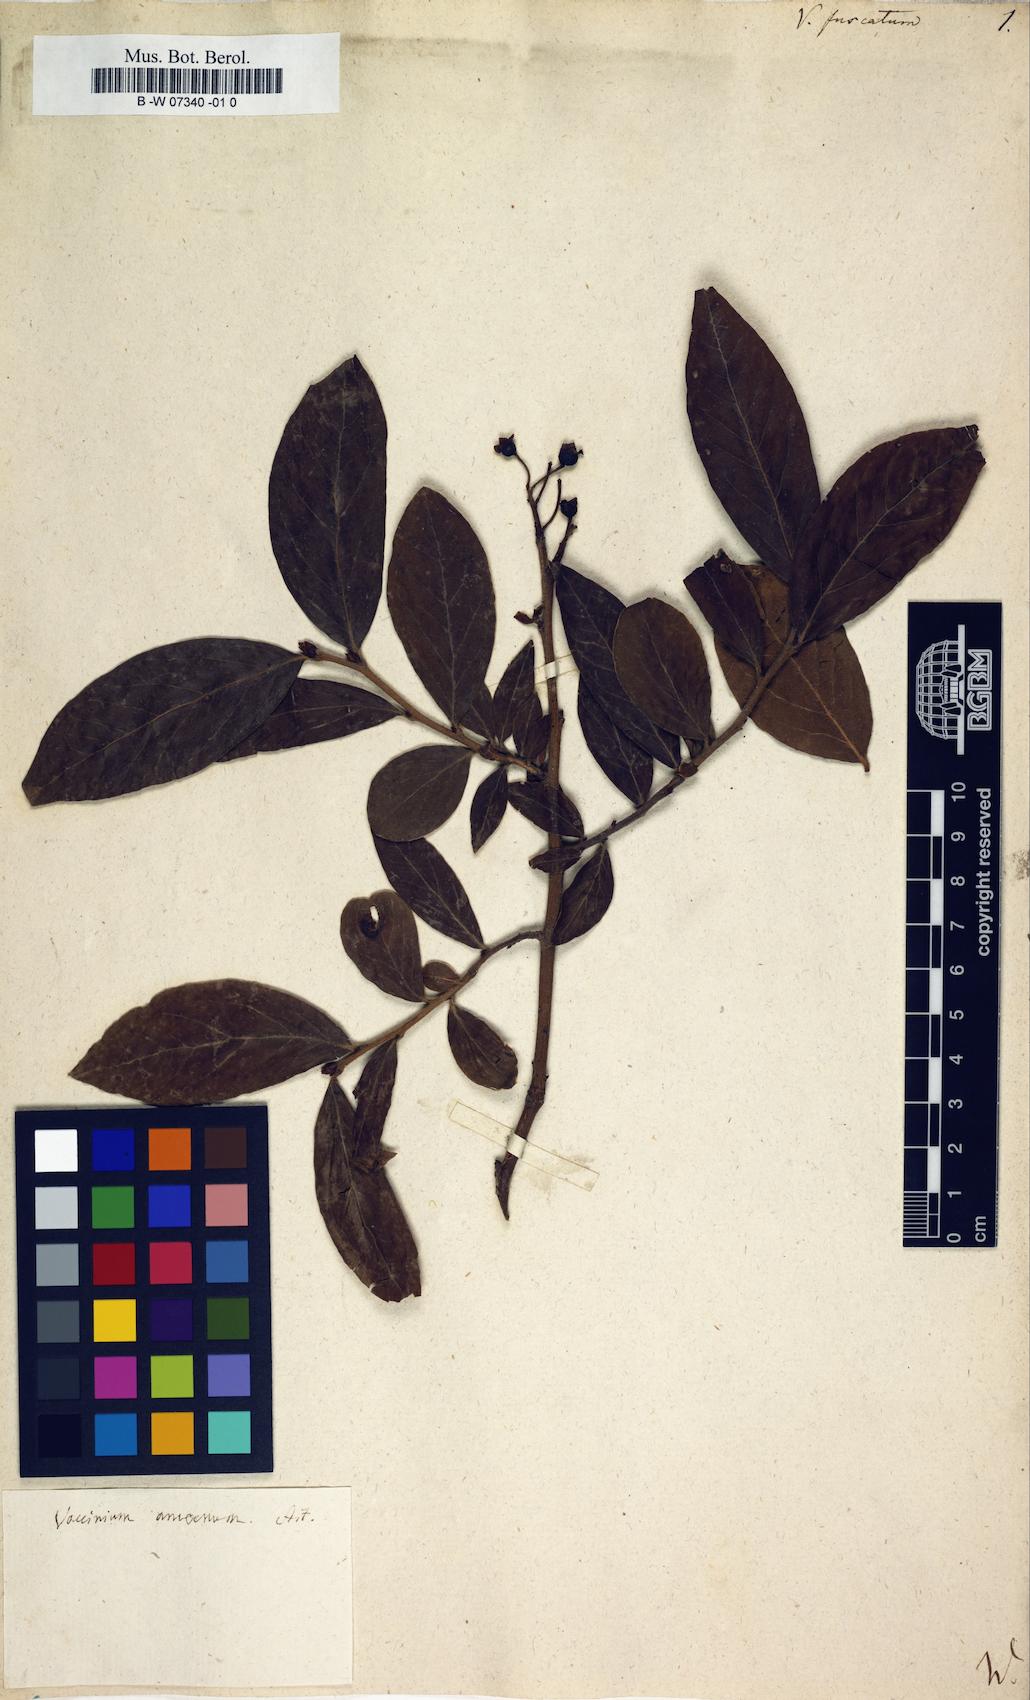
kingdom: Plantae
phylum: Tracheophyta
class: Magnoliopsida
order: Ericales
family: Ericaceae
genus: Vaccinium
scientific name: Vaccinium corymbosum
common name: Blueberry
